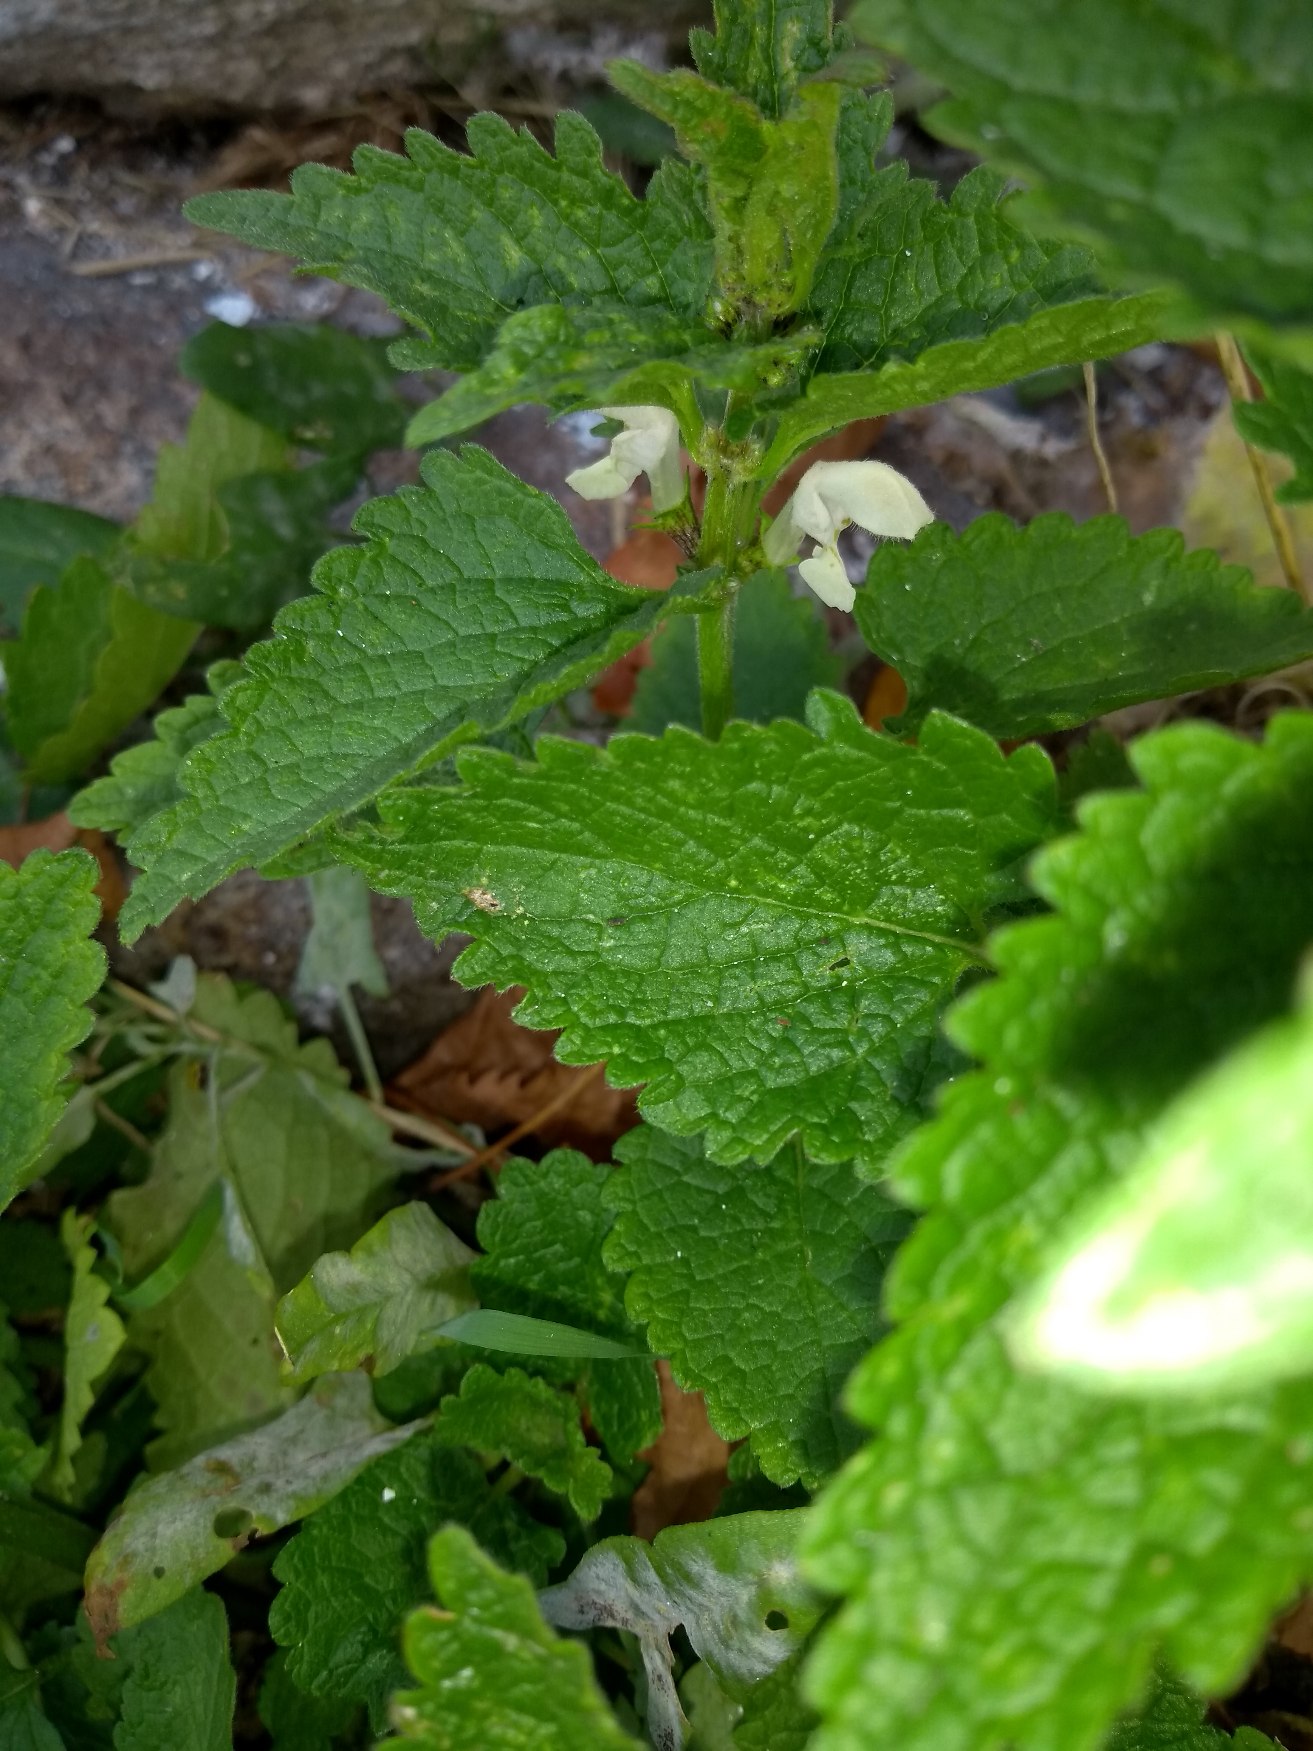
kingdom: Plantae
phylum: Tracheophyta
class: Magnoliopsida
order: Lamiales
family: Lamiaceae
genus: Lamium
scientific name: Lamium album
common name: Døvnælde
